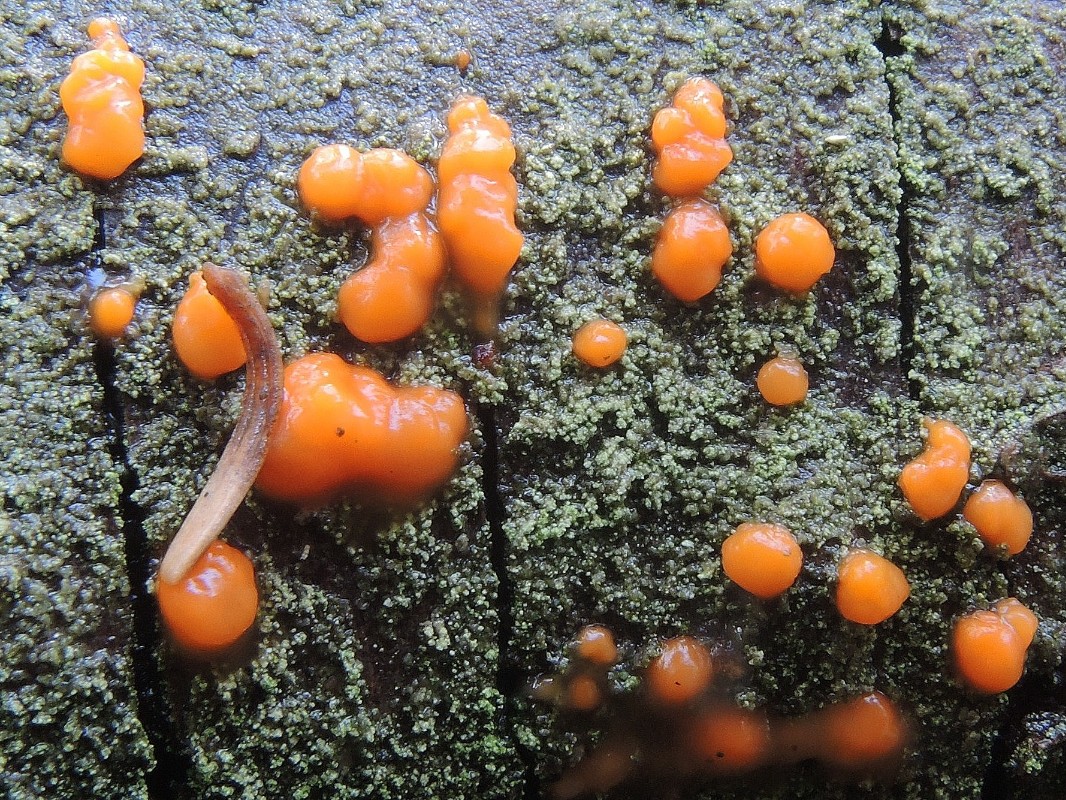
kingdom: Fungi
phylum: Basidiomycota
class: Dacrymycetes
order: Dacrymycetales
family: Dacrymycetaceae
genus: Dacrymyces
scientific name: Dacrymyces stillatus
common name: almindelig tåresvamp
